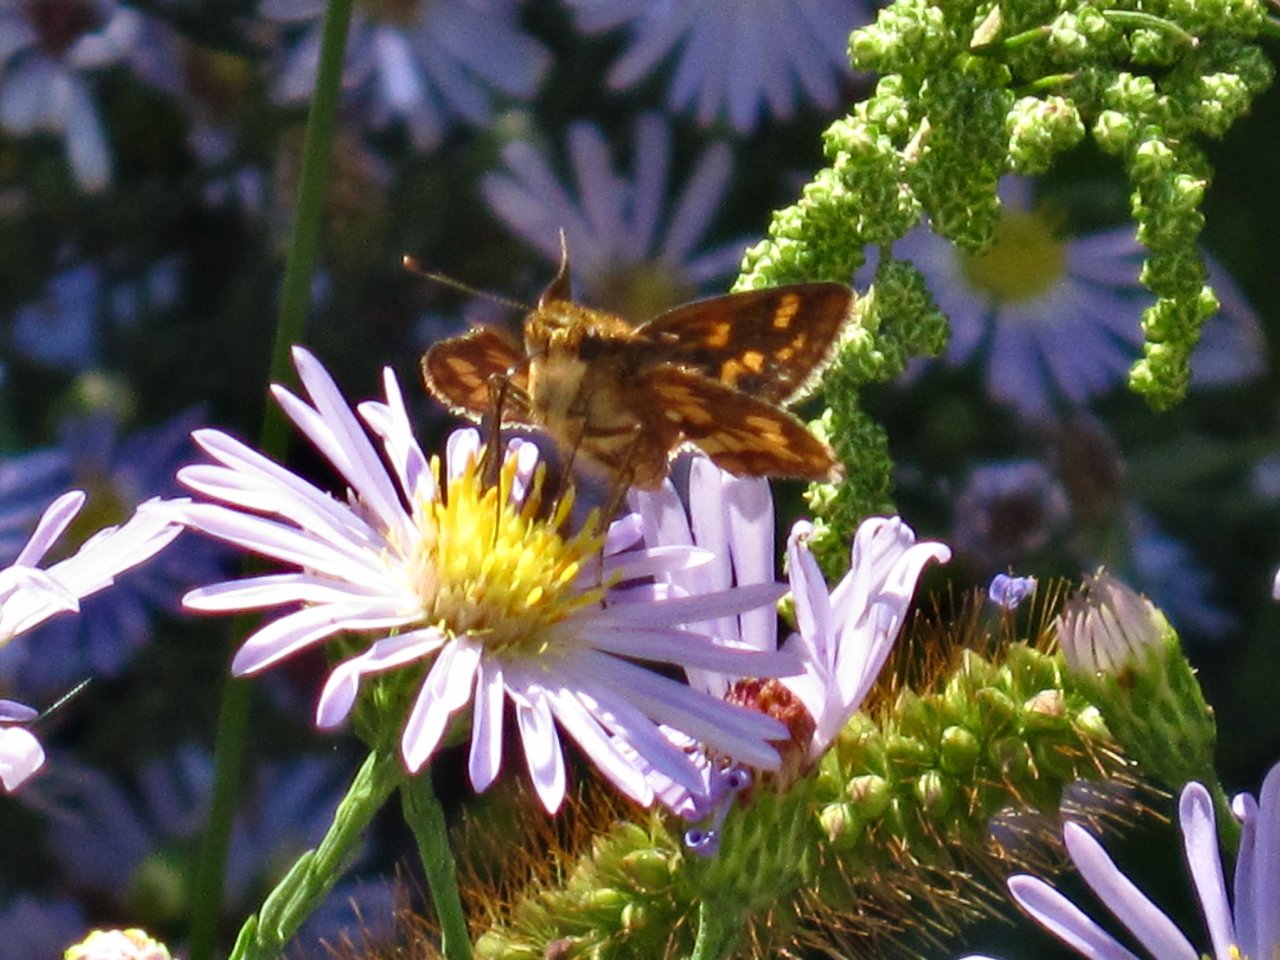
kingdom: Animalia
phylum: Arthropoda
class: Insecta
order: Lepidoptera
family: Hesperiidae
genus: Polites
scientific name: Polites coras
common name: Peck's Skipper
